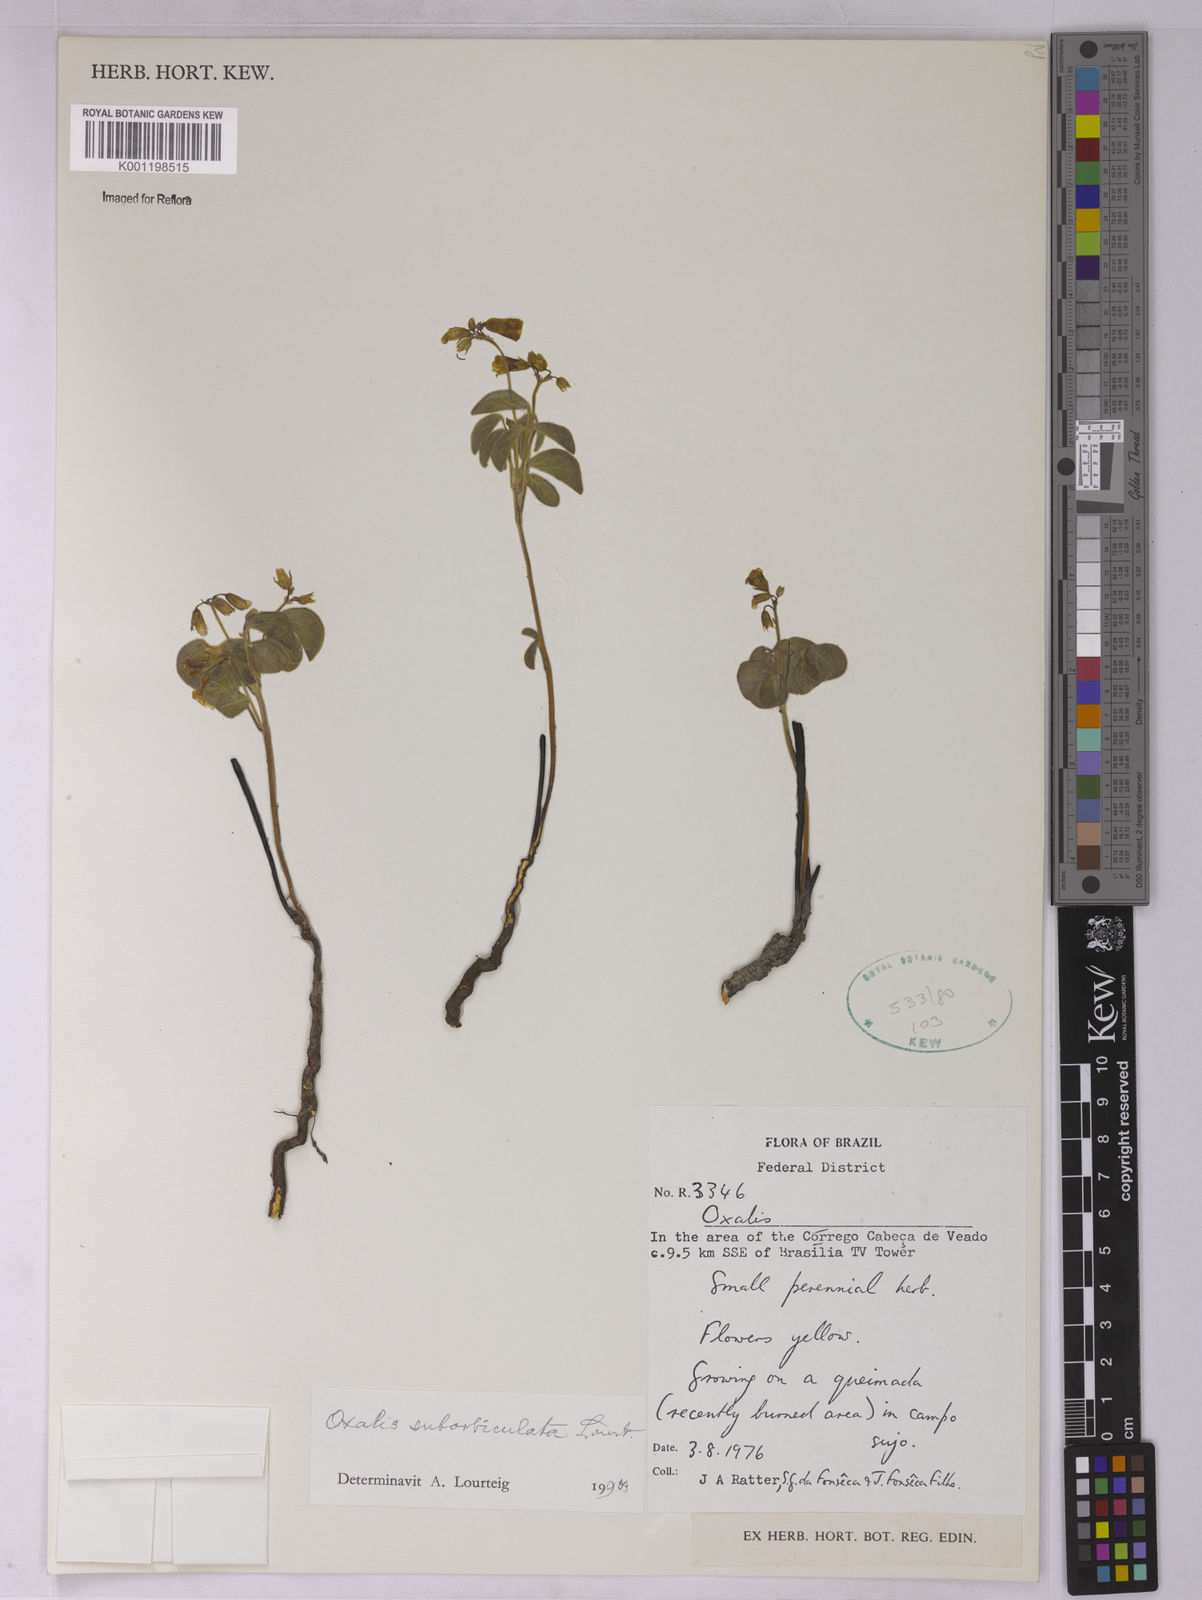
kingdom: Plantae
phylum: Tracheophyta
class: Magnoliopsida
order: Oxalidales
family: Oxalidaceae
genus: Oxalis
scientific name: Oxalis suborbiculata
